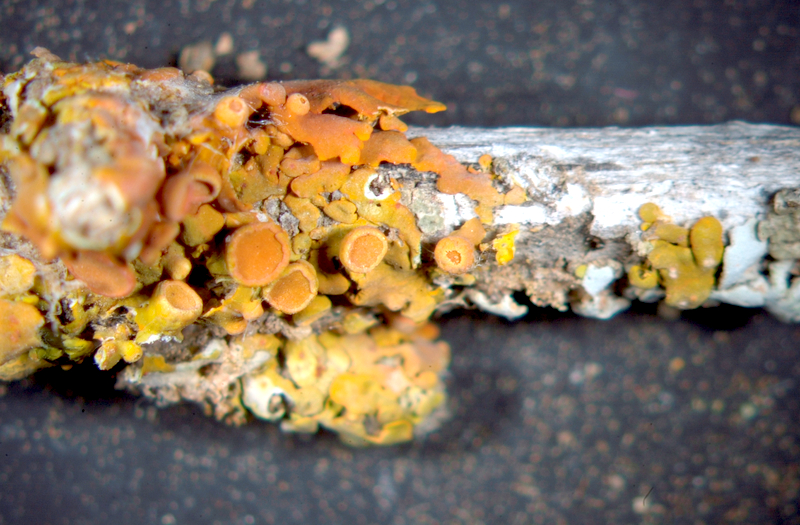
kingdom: Fungi
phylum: Ascomycota
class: Lecanoromycetes
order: Teloschistales
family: Teloschistaceae
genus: Dufourea
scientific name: Dufourea bonae-spei
